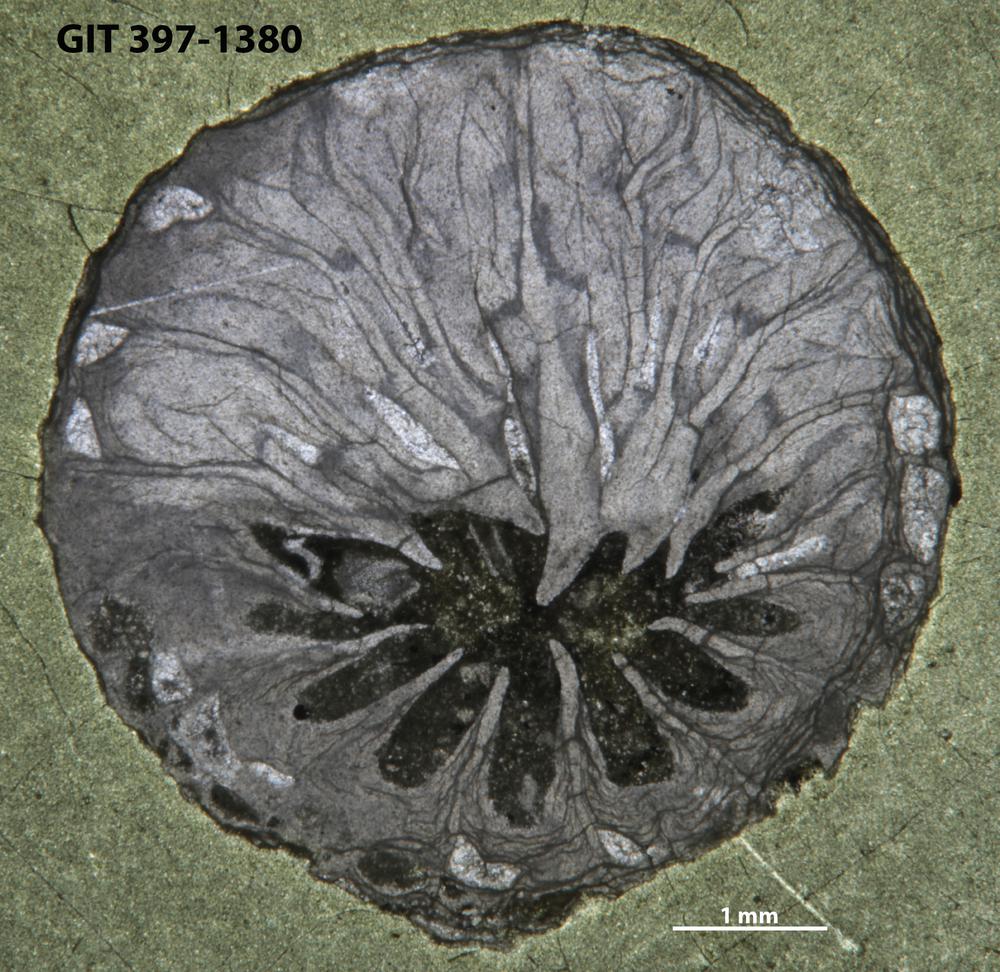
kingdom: Animalia
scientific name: Animalia
